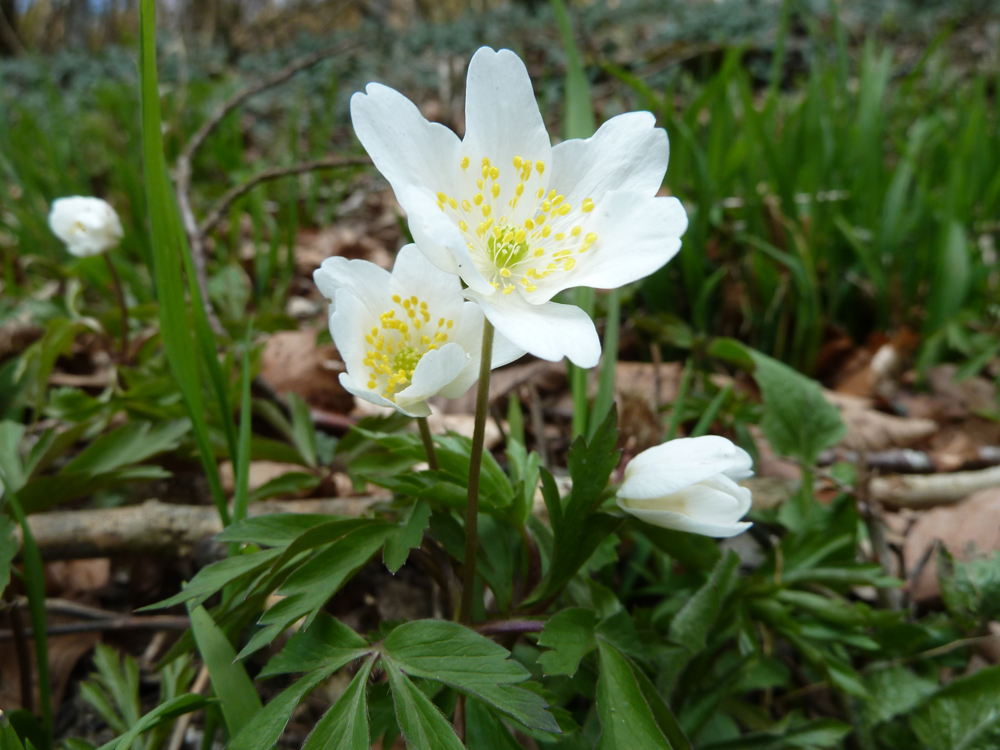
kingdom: Plantae
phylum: Tracheophyta
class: Magnoliopsida
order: Ranunculales
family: Ranunculaceae
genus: Anemone
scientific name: Anemone nemorosa
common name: Wood anemone
